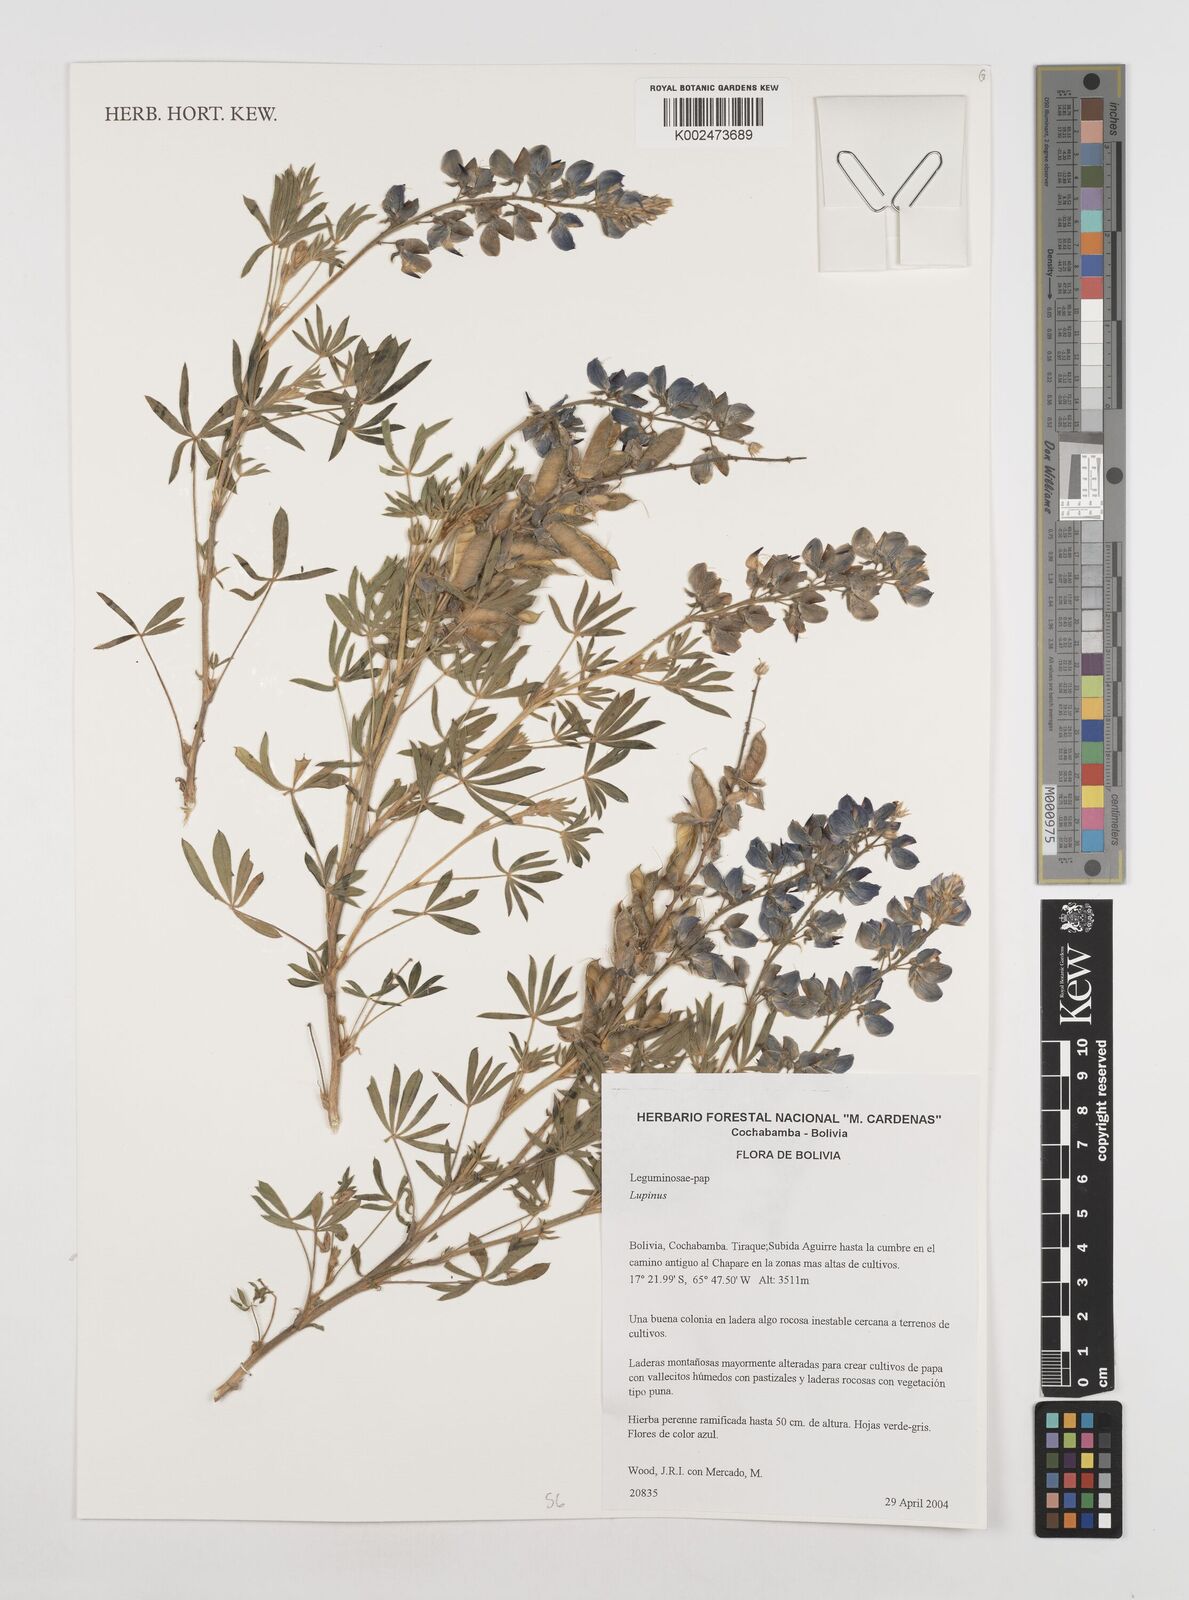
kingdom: Plantae
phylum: Tracheophyta
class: Magnoliopsida
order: Fabales
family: Fabaceae
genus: Lupinus
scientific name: Lupinus
